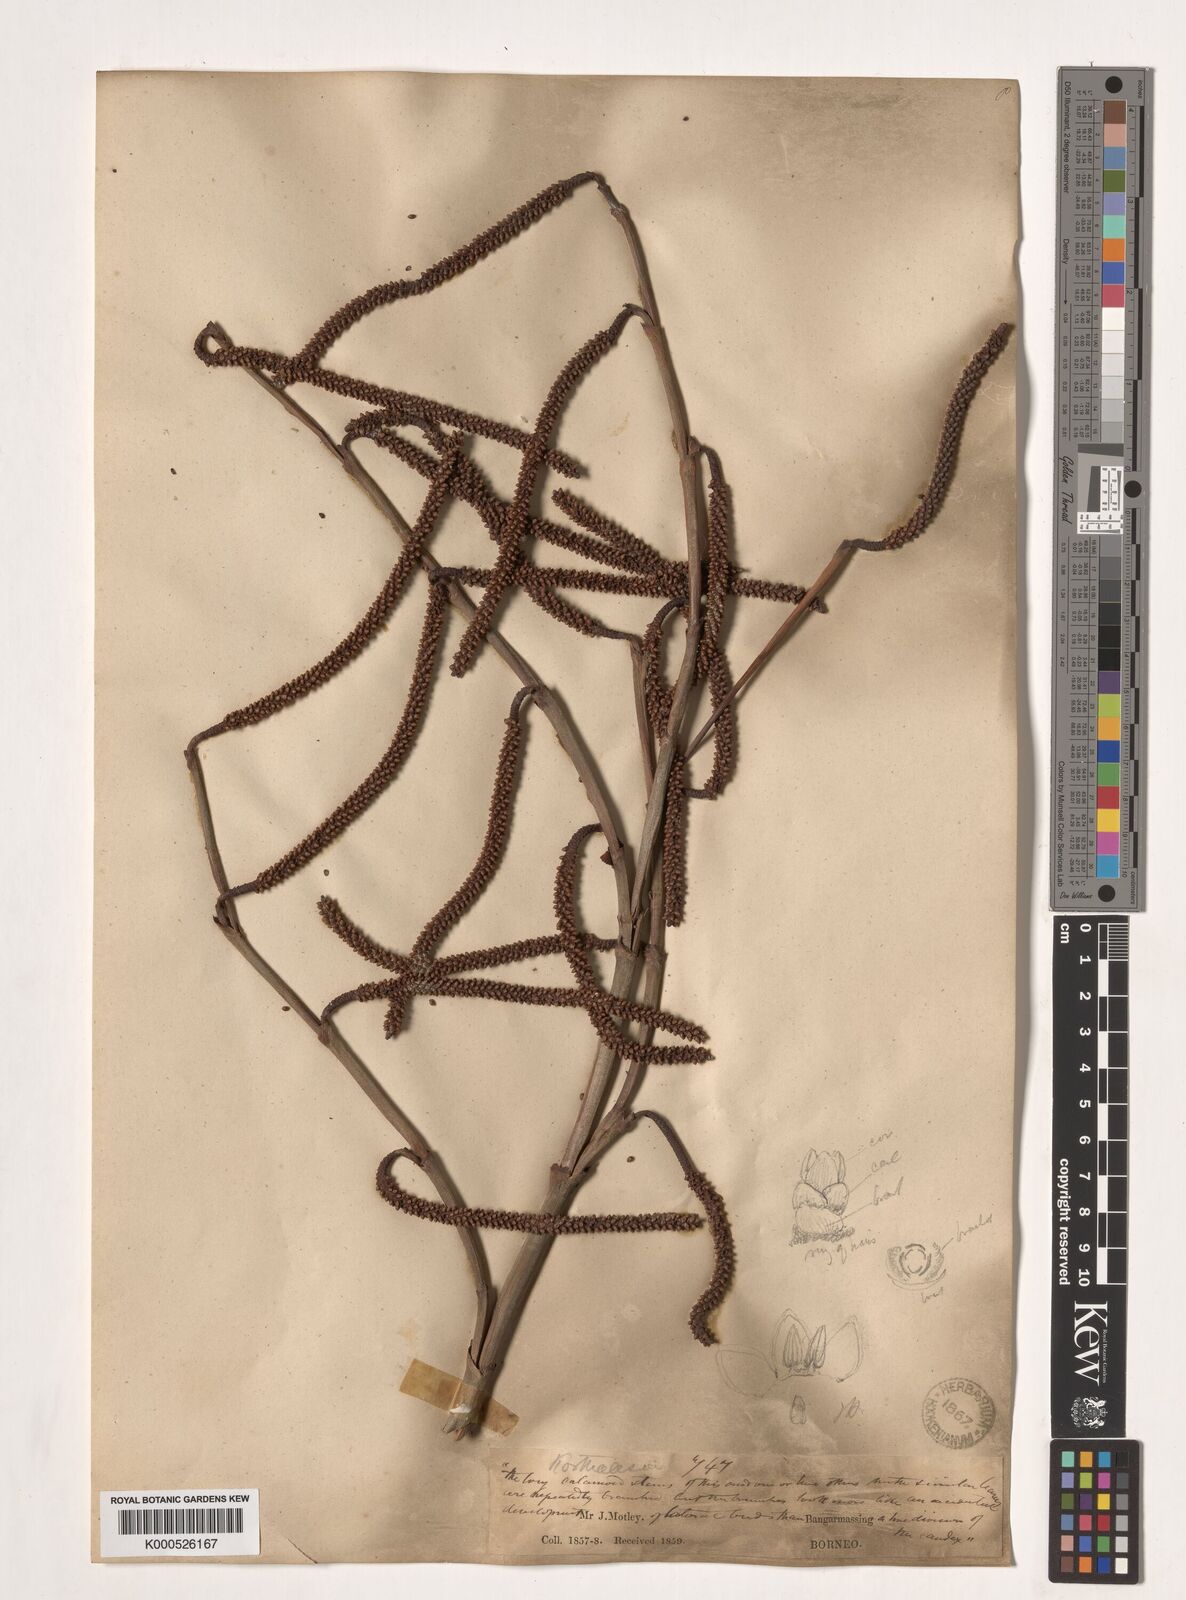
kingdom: Plantae
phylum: Tracheophyta
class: Liliopsida
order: Arecales
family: Arecaceae
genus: Korthalsia
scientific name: Korthalsia rigida
